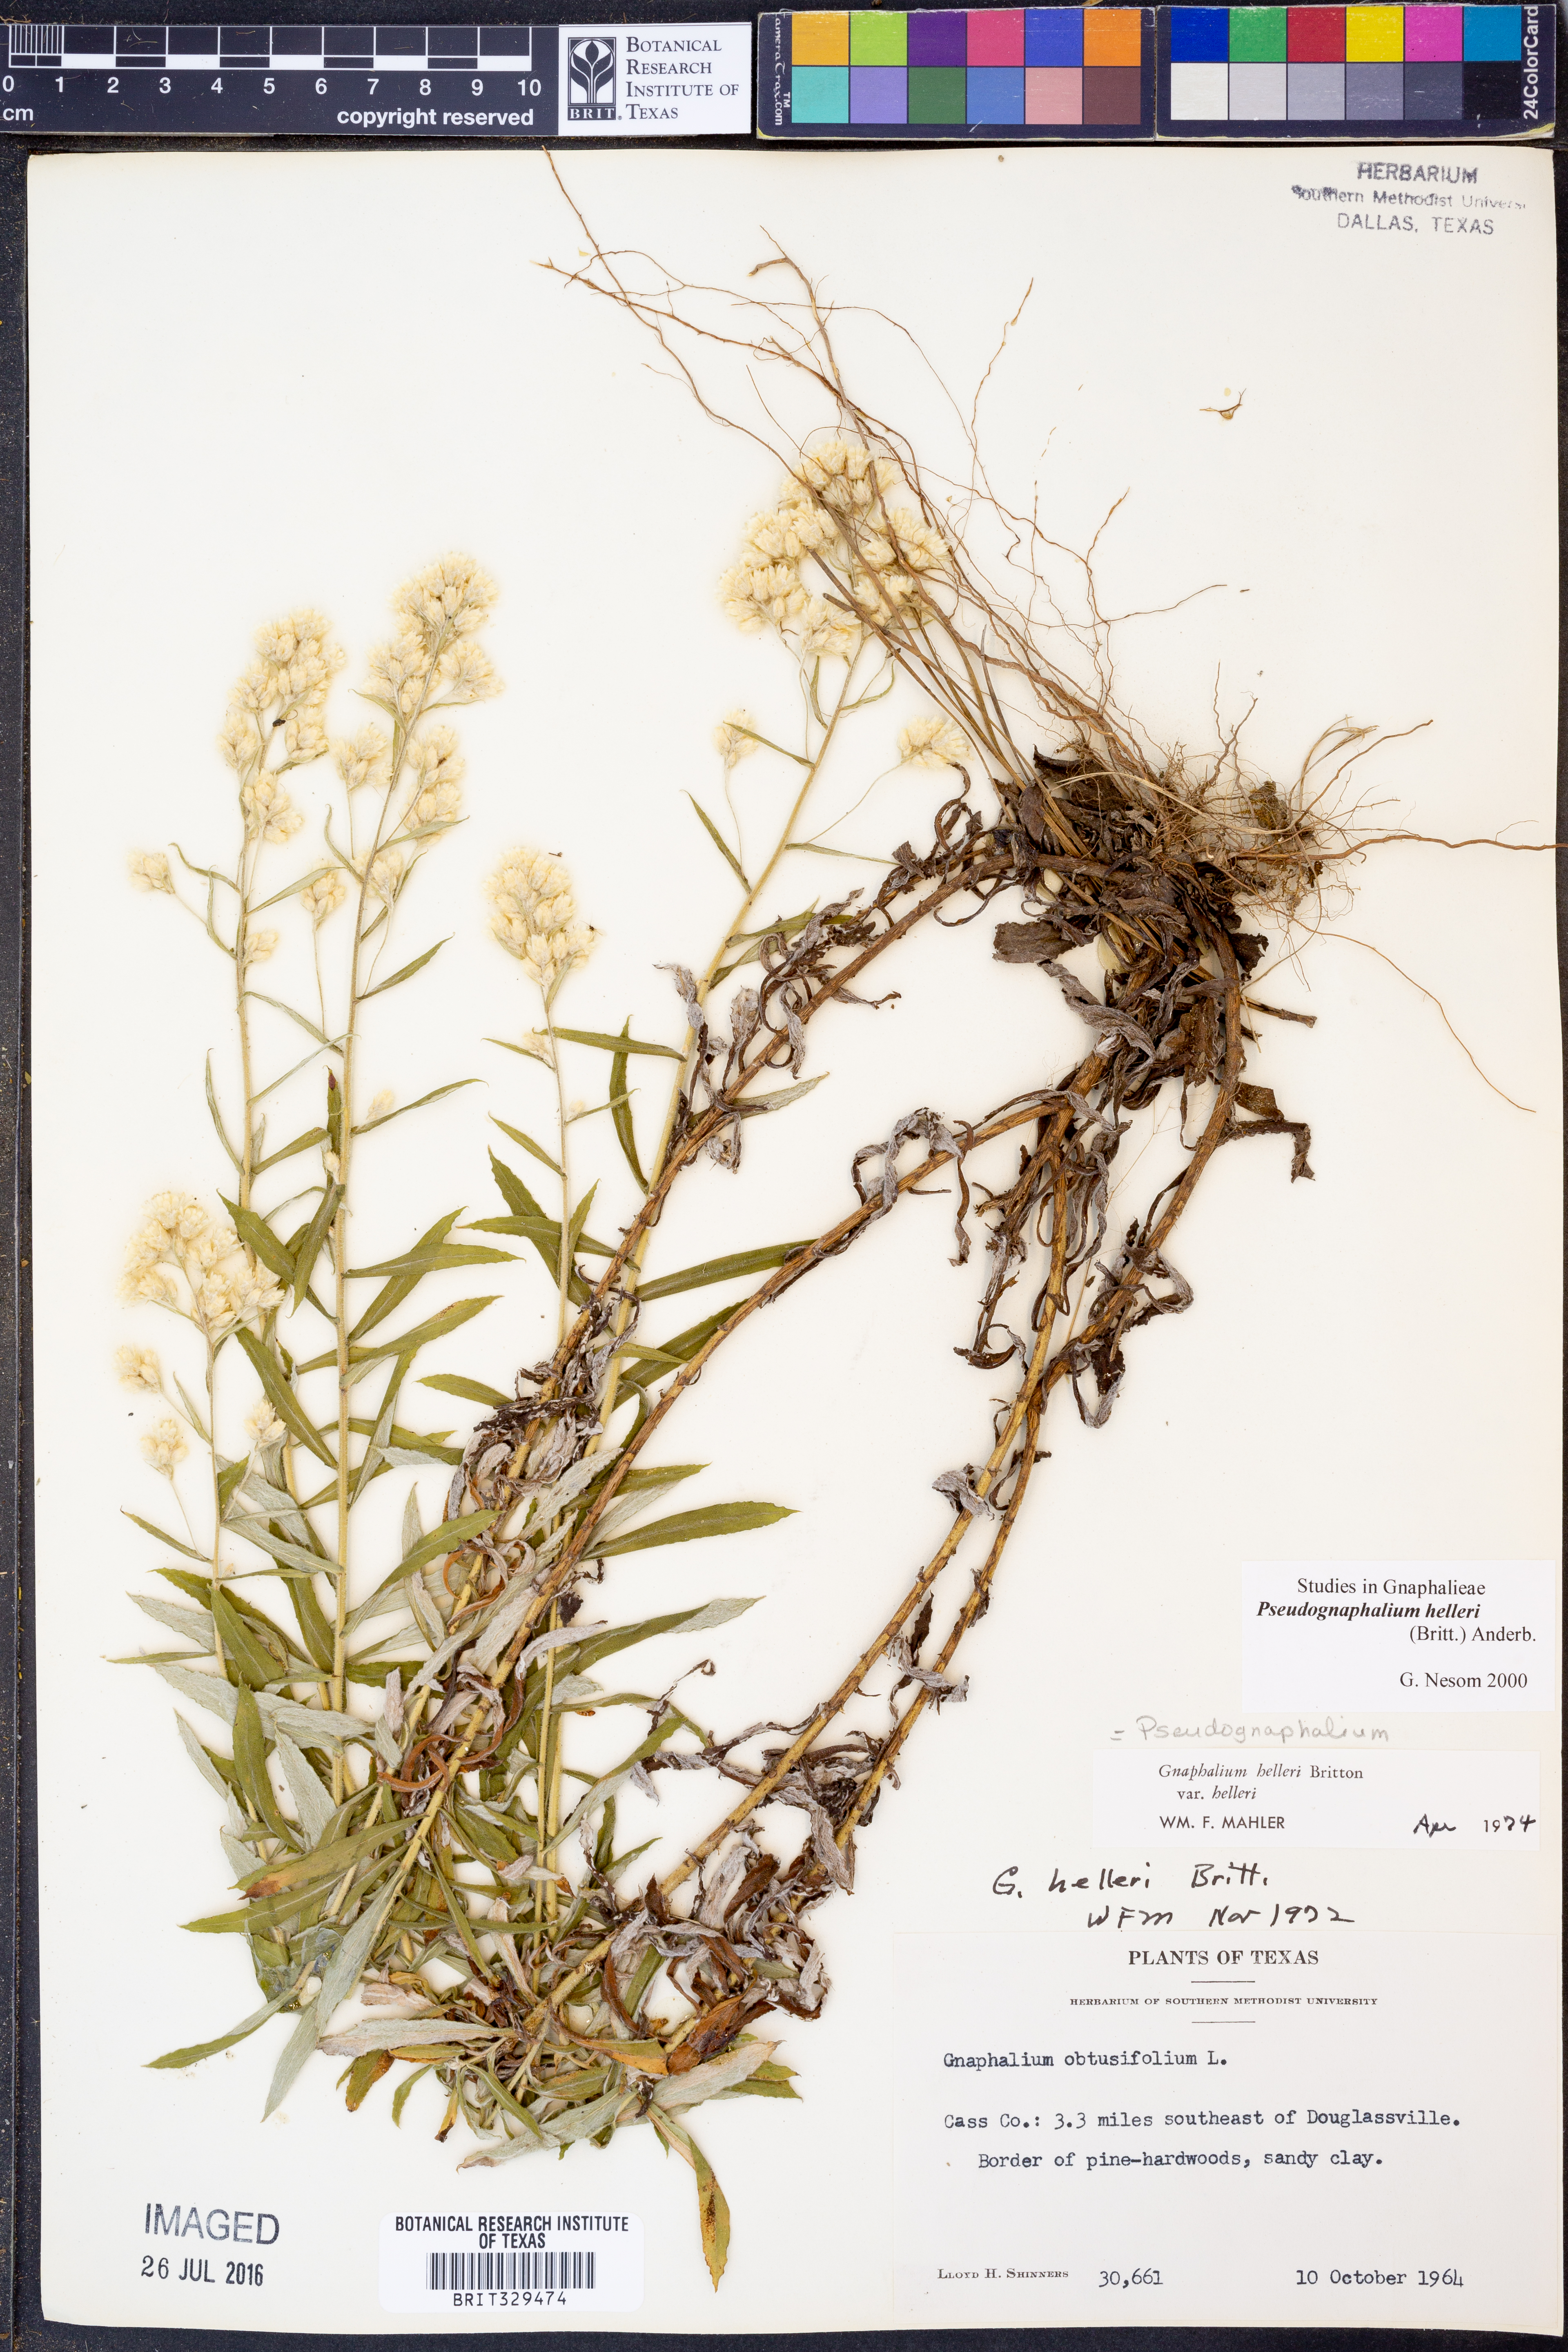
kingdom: Plantae
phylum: Tracheophyta
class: Magnoliopsida
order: Asterales
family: Asteraceae
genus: Pseudognaphalium
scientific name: Pseudognaphalium helleri
